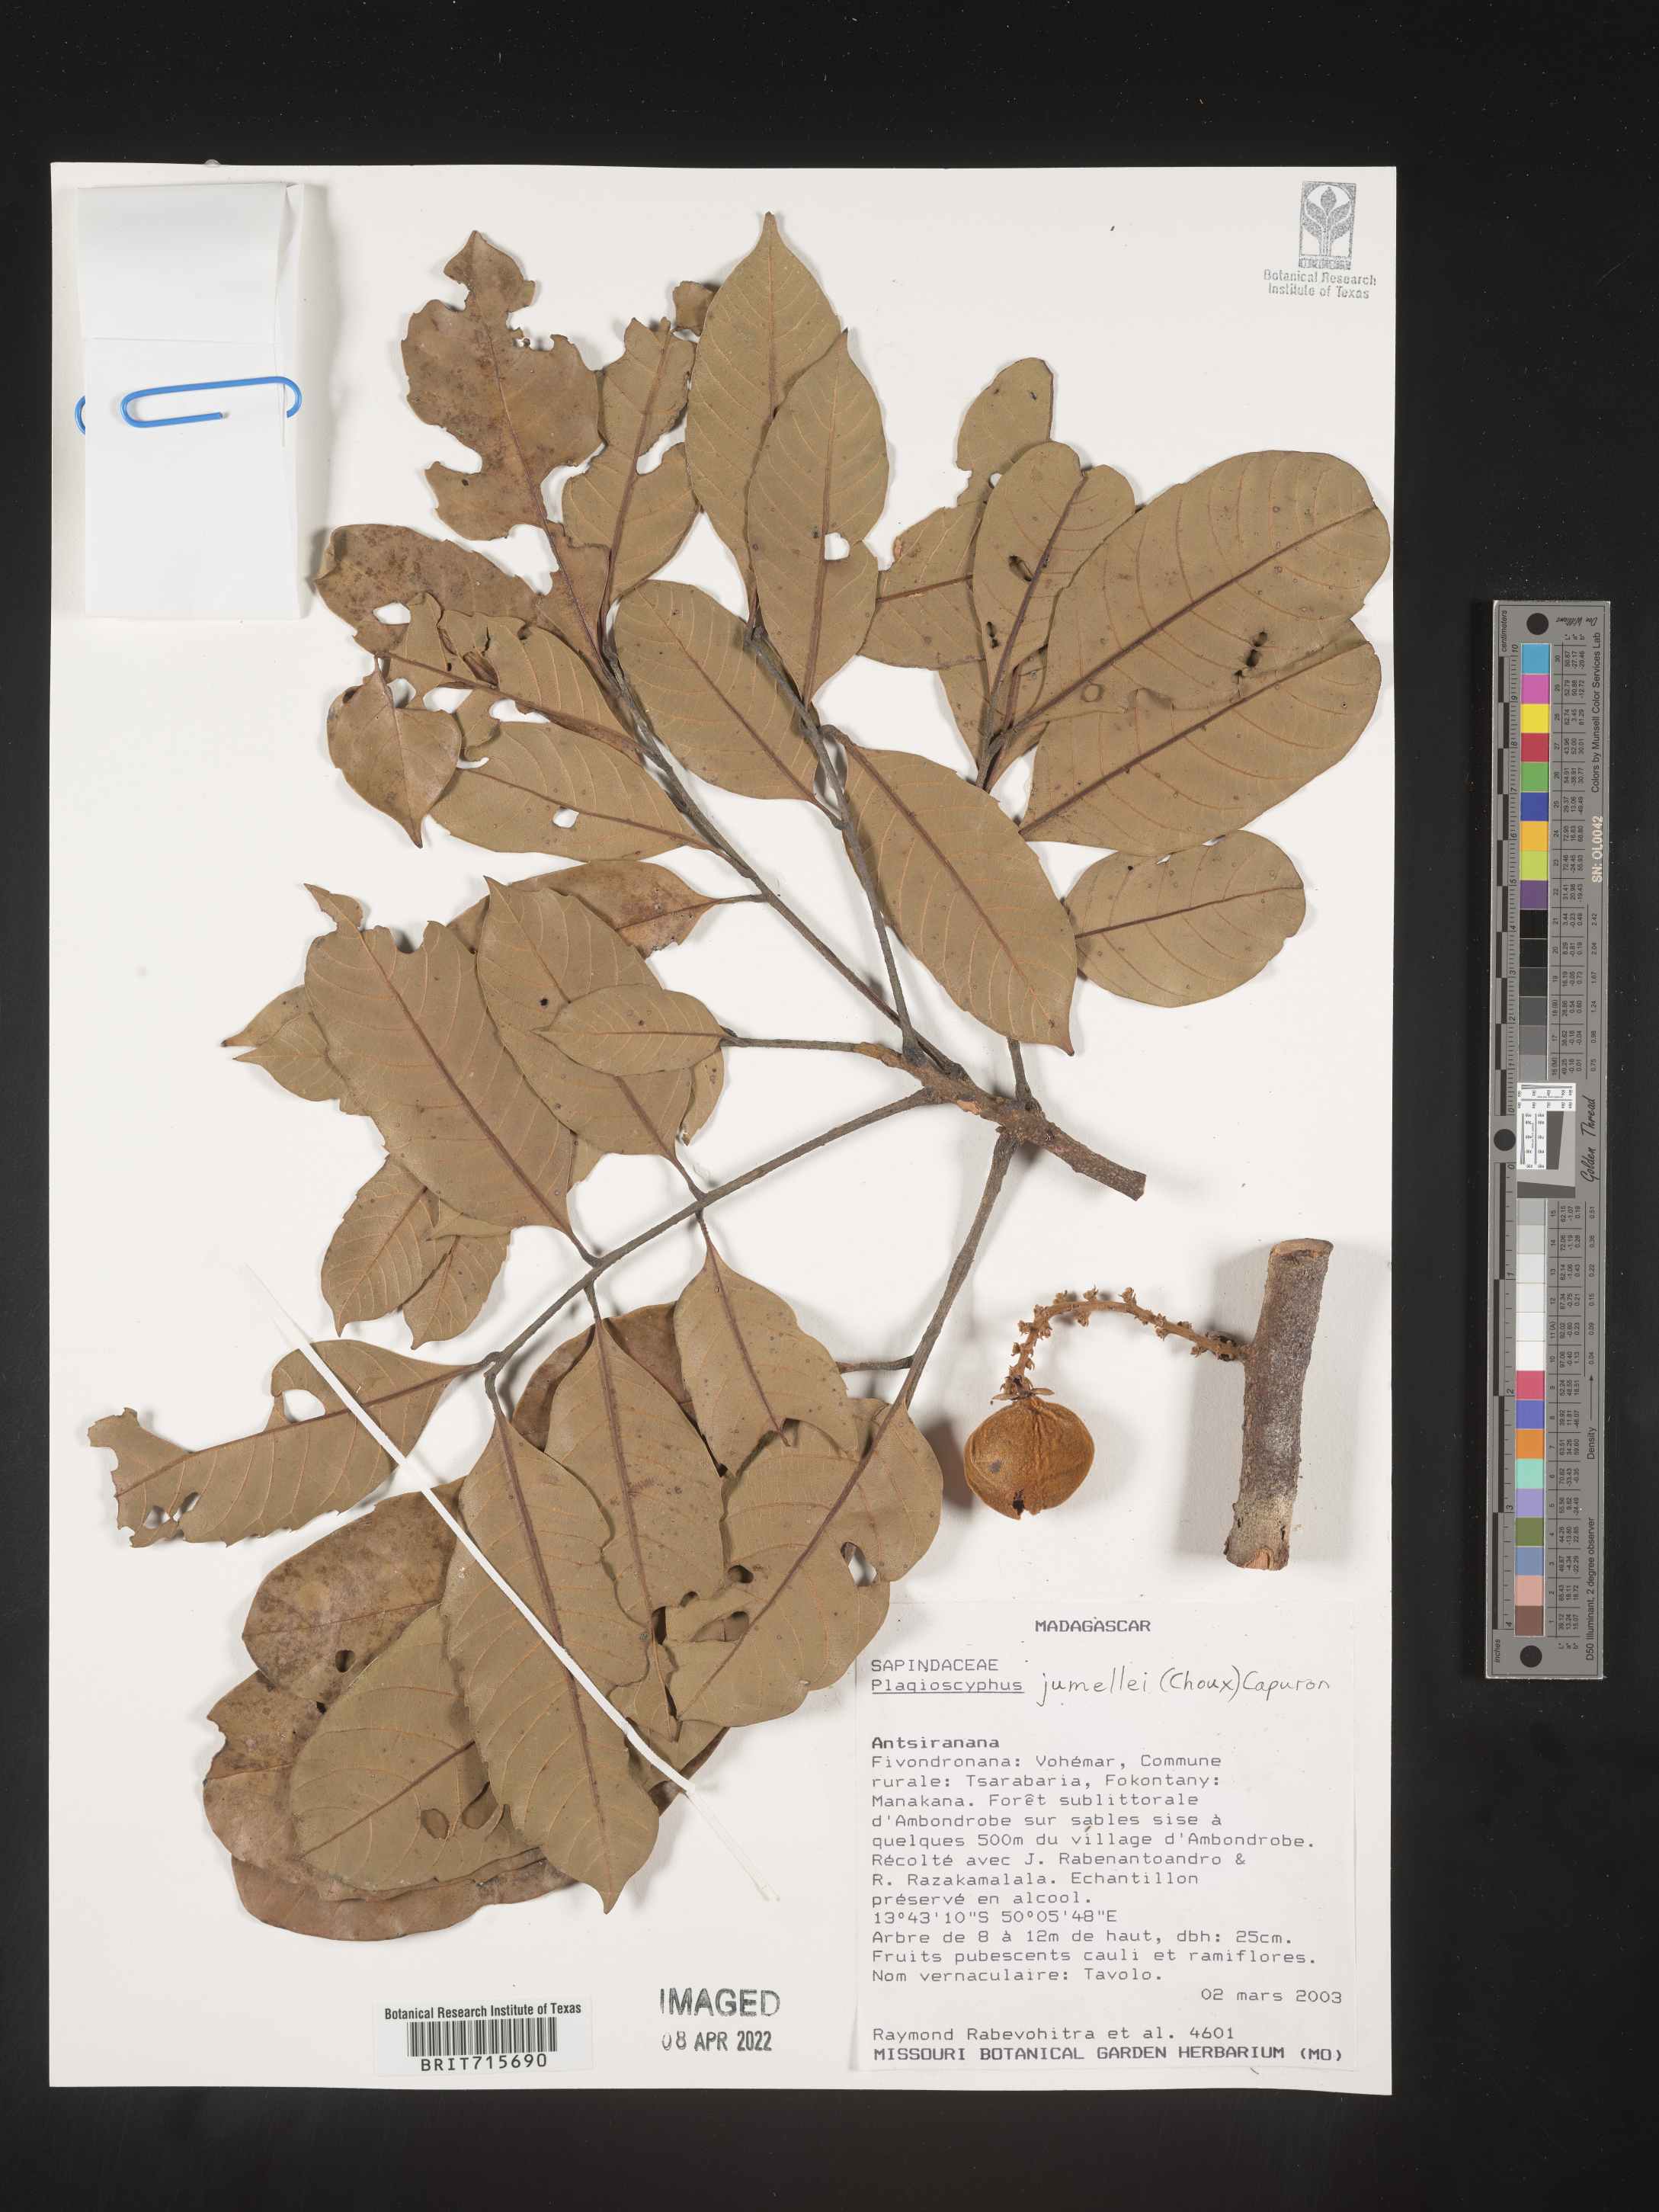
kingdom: Plantae
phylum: Tracheophyta
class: Magnoliopsida
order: Sapindales
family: Sapindaceae
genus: Plagioscyphus
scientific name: Plagioscyphus
